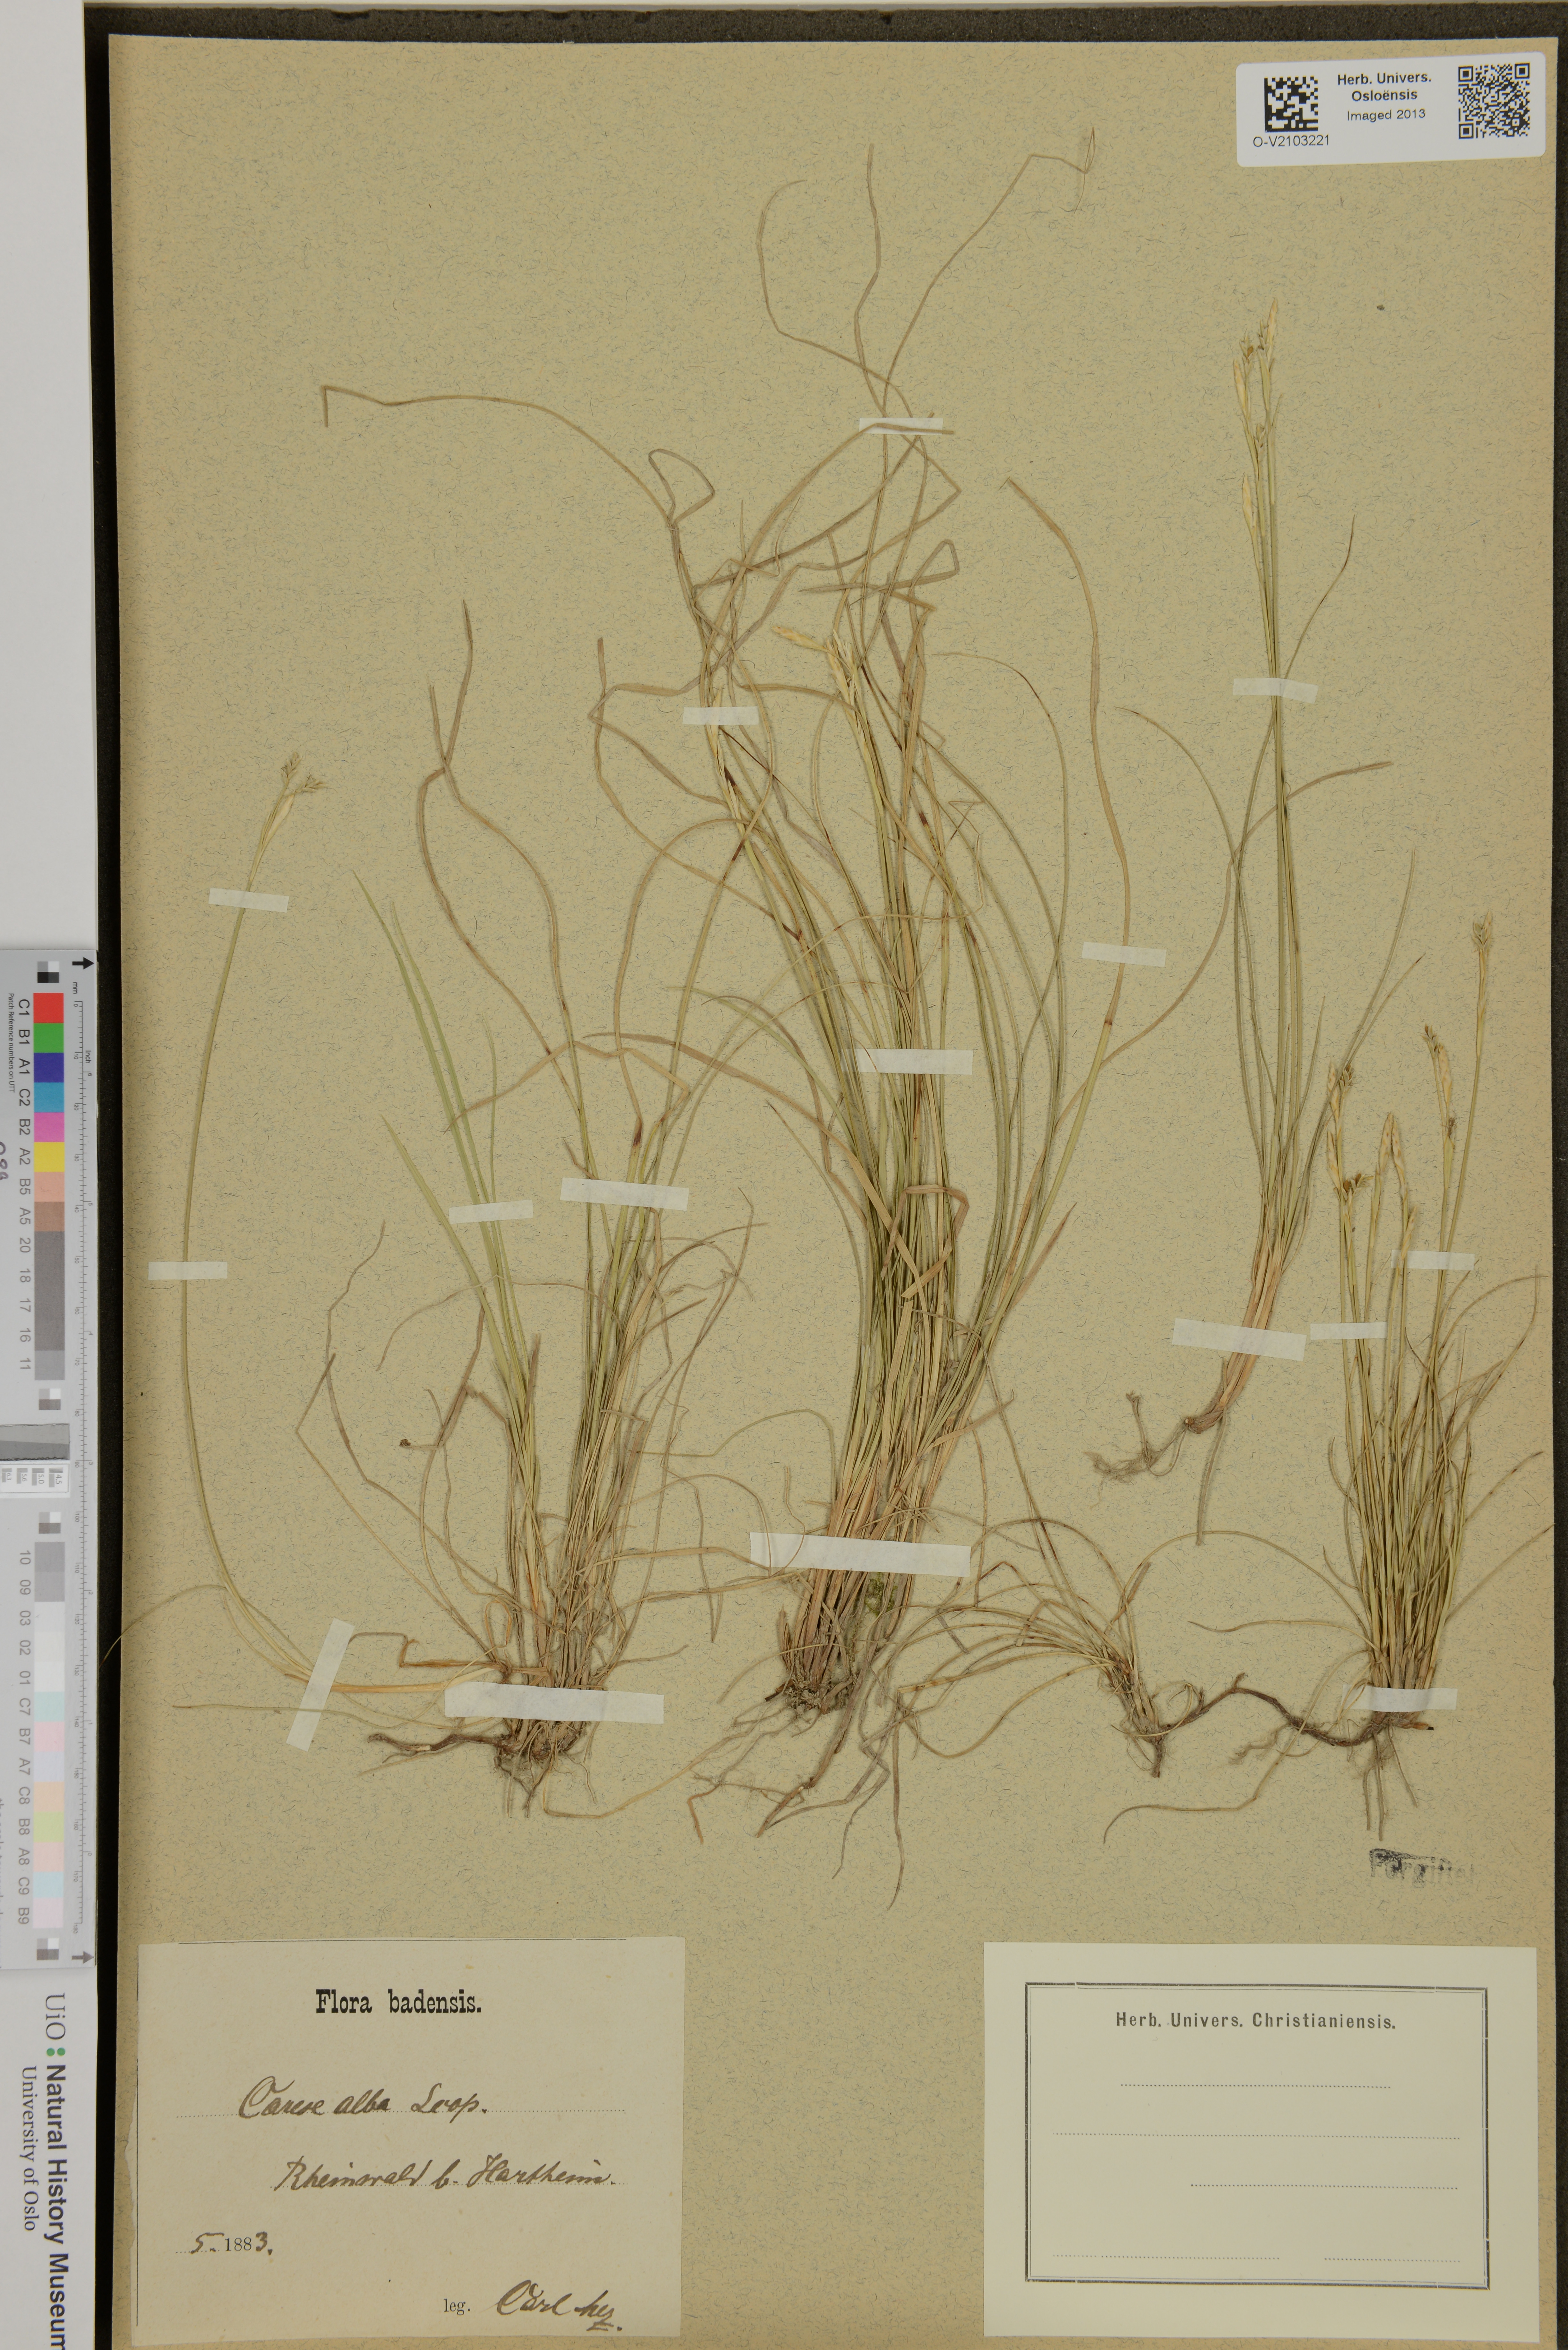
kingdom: Plantae
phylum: Tracheophyta
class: Liliopsida
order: Poales
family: Cyperaceae
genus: Carex
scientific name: Carex alba
